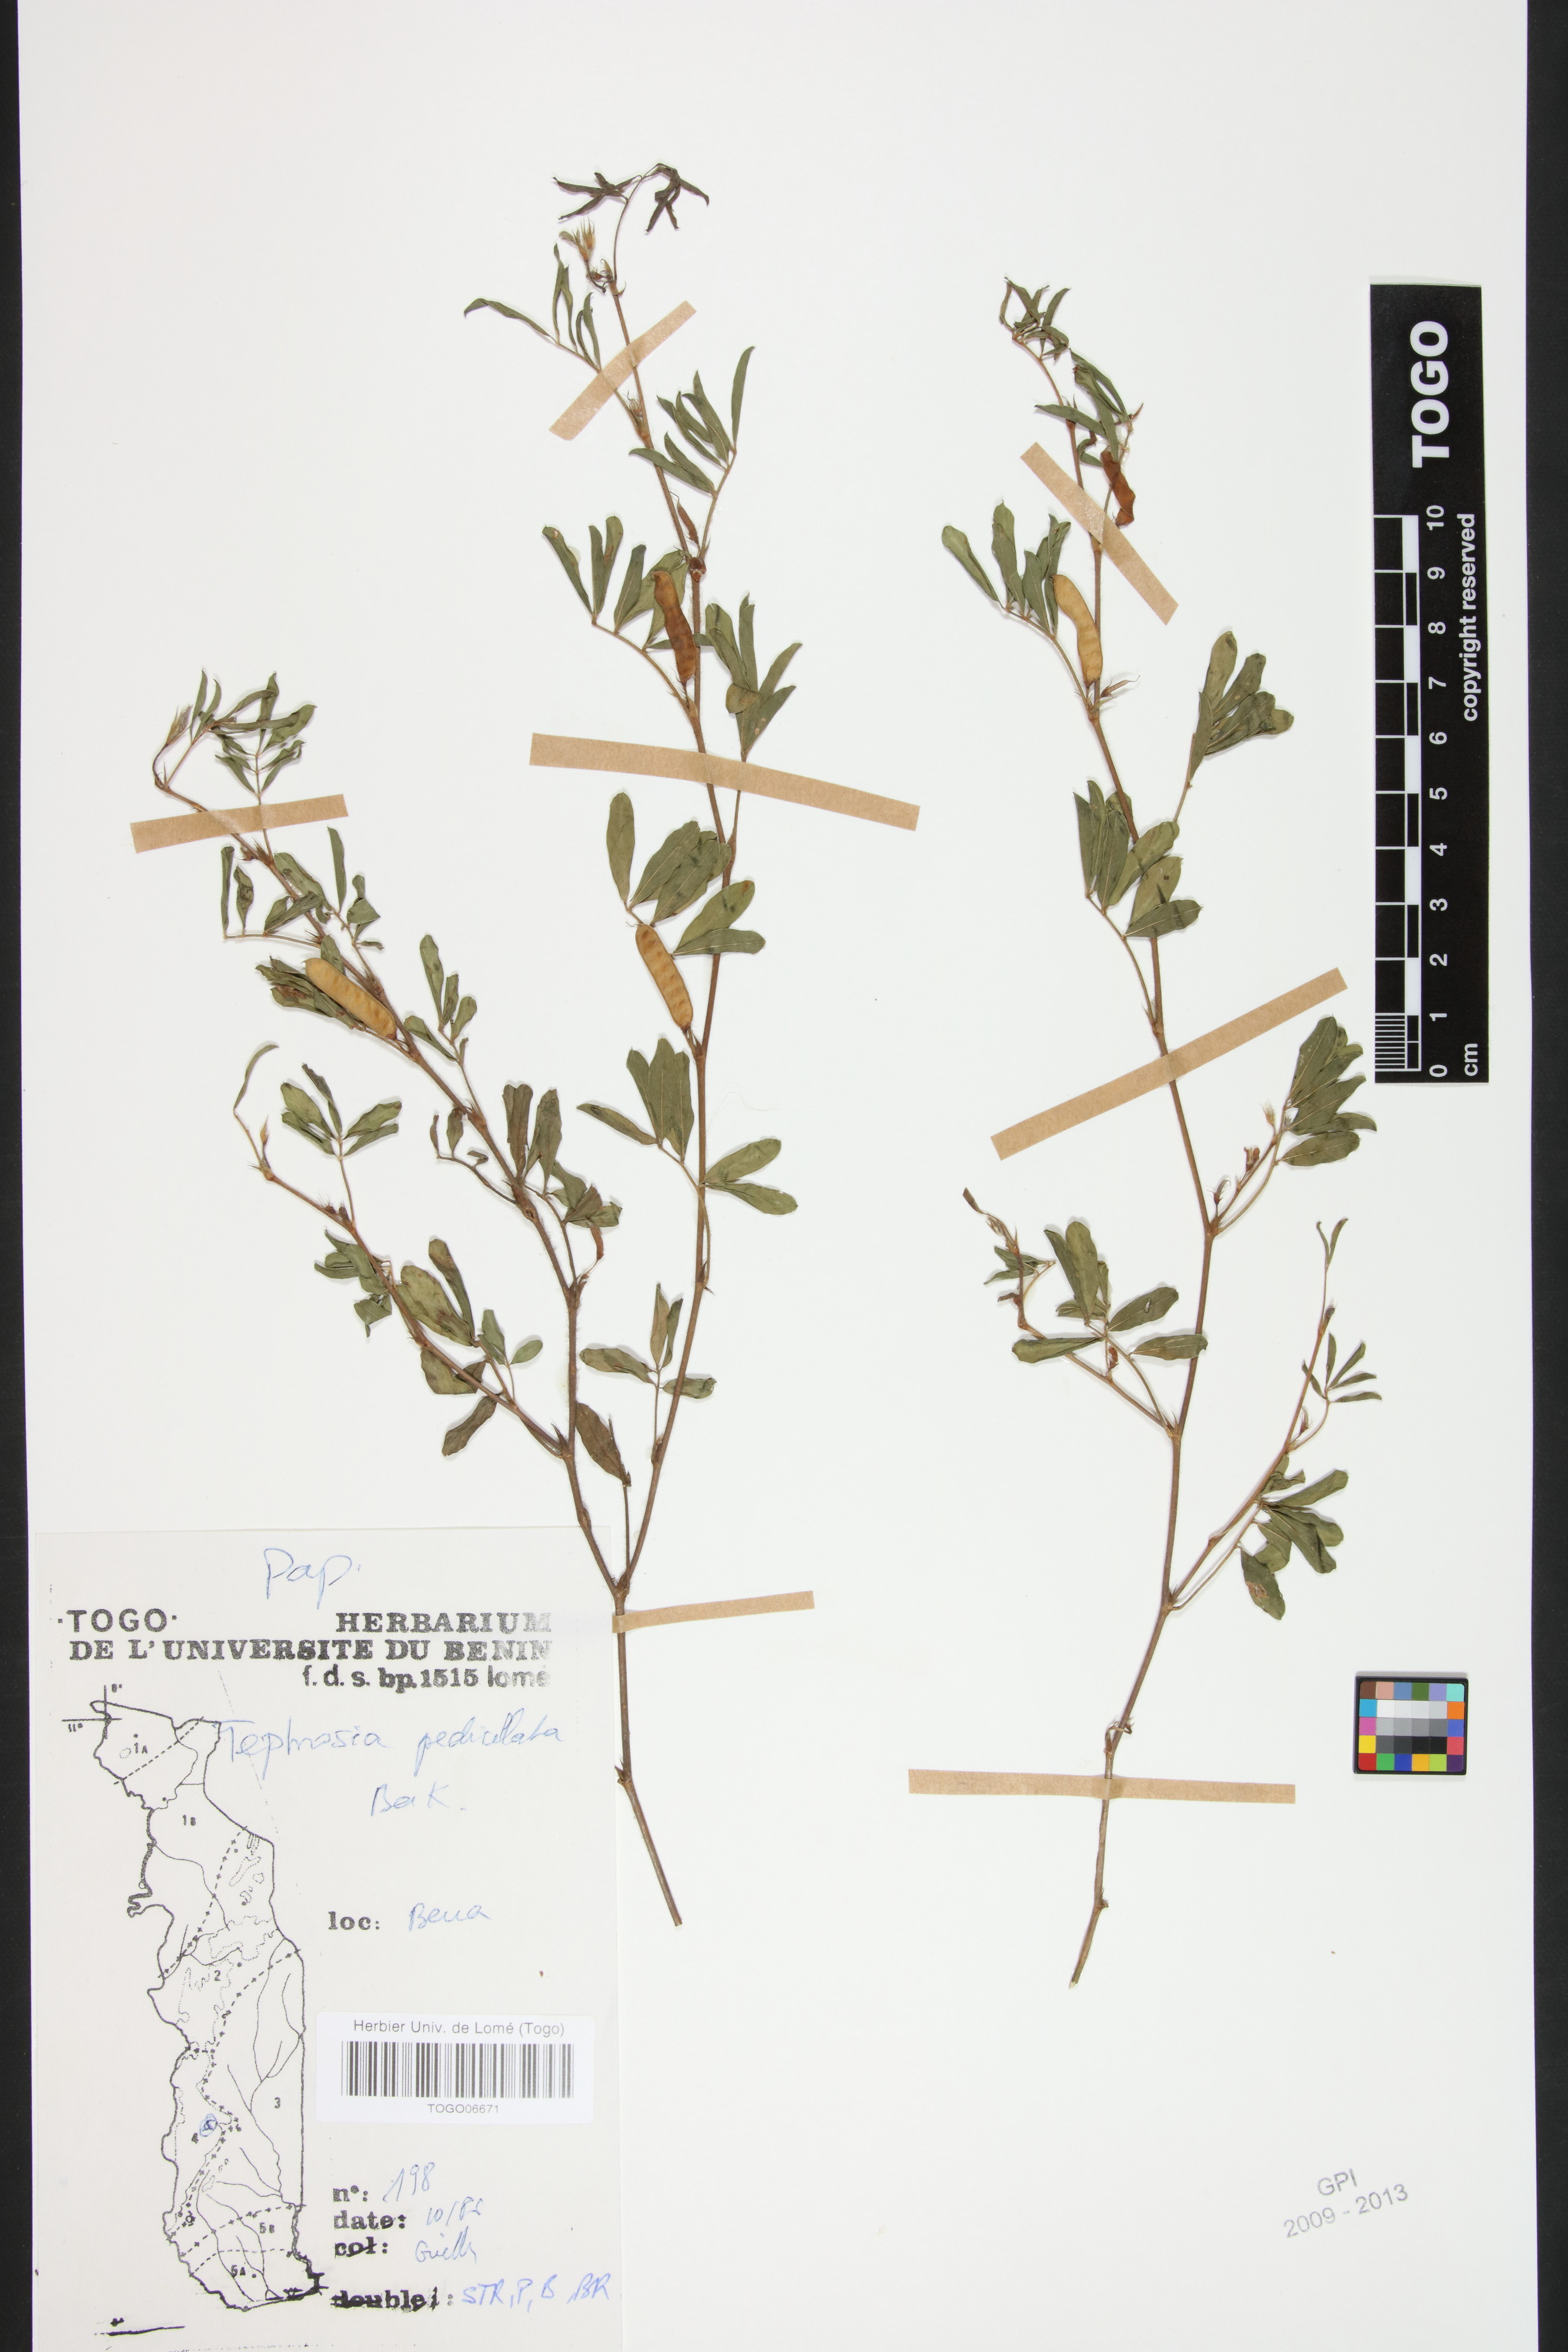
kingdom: Plantae
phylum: Tracheophyta
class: Magnoliopsida
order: Fabales
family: Fabaceae
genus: Tephrosia
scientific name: Tephrosia pedicellata
